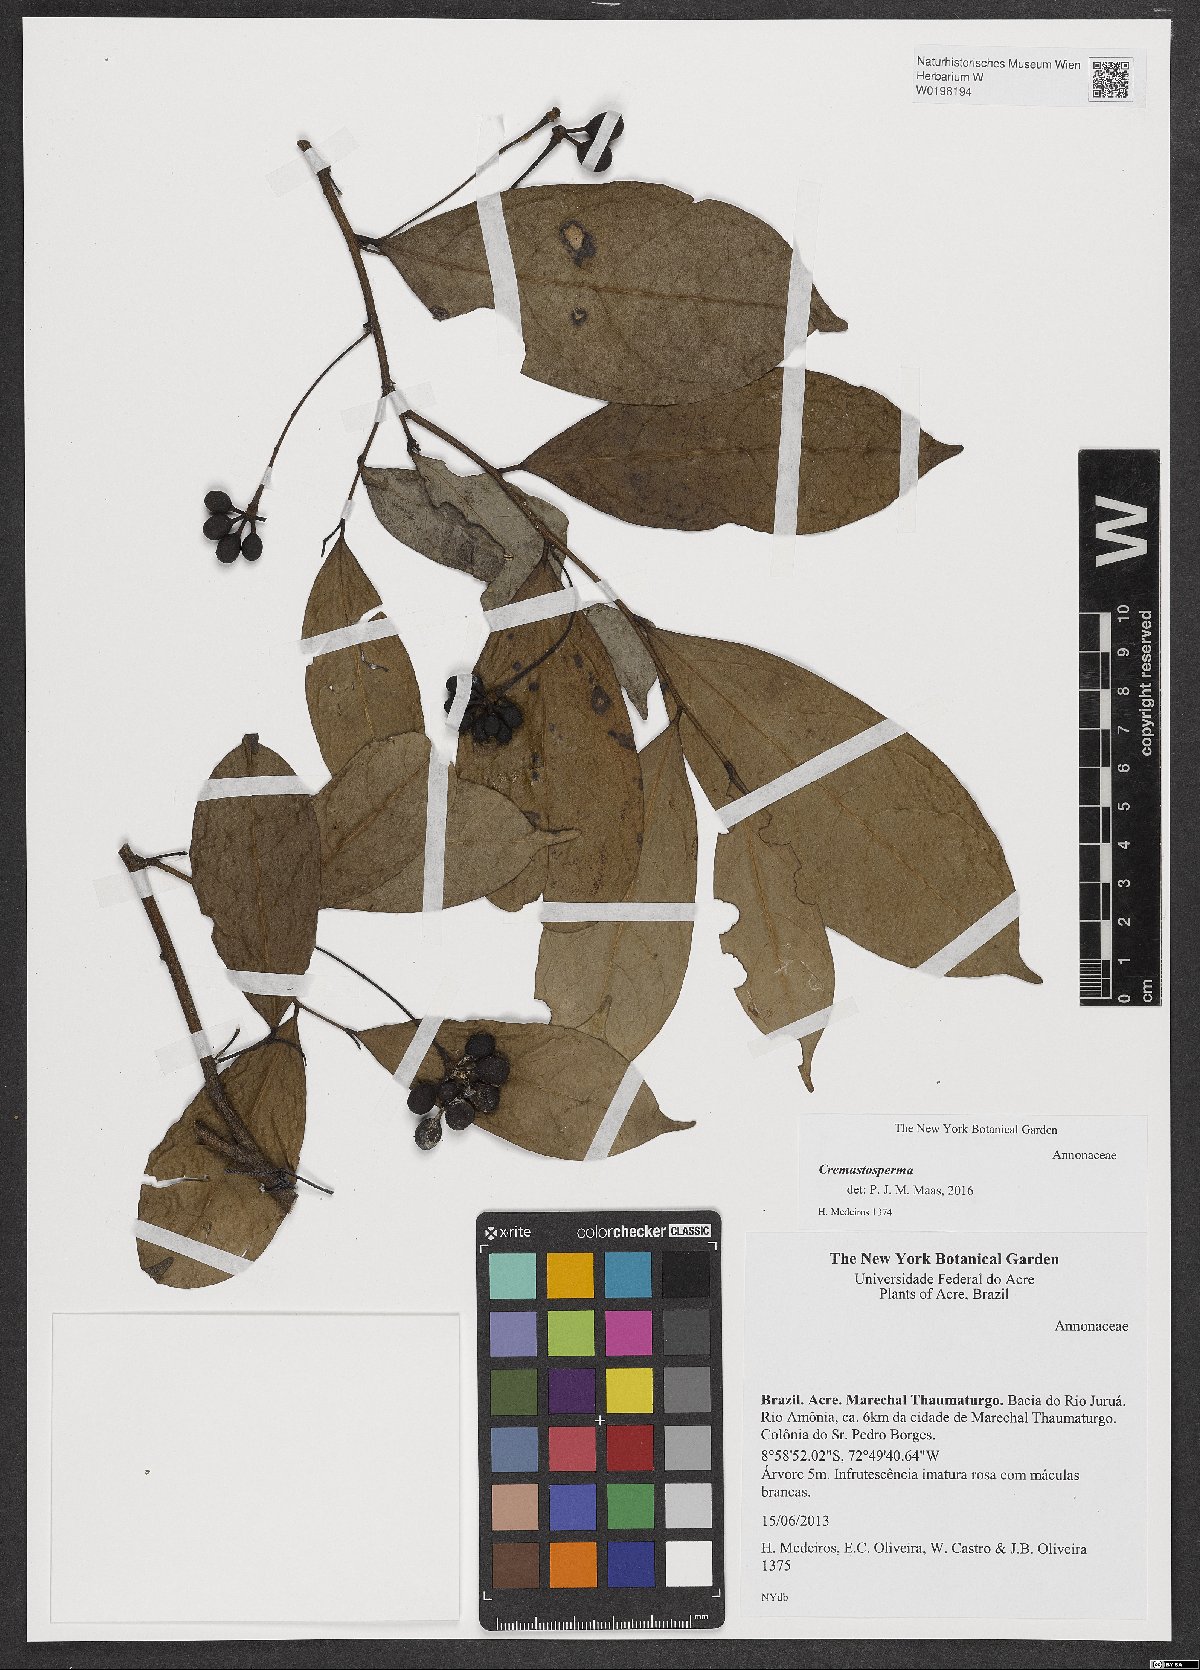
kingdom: Plantae
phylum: Tracheophyta
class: Magnoliopsida
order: Magnoliales
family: Annonaceae
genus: Cremastosperma
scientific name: Cremastosperma
